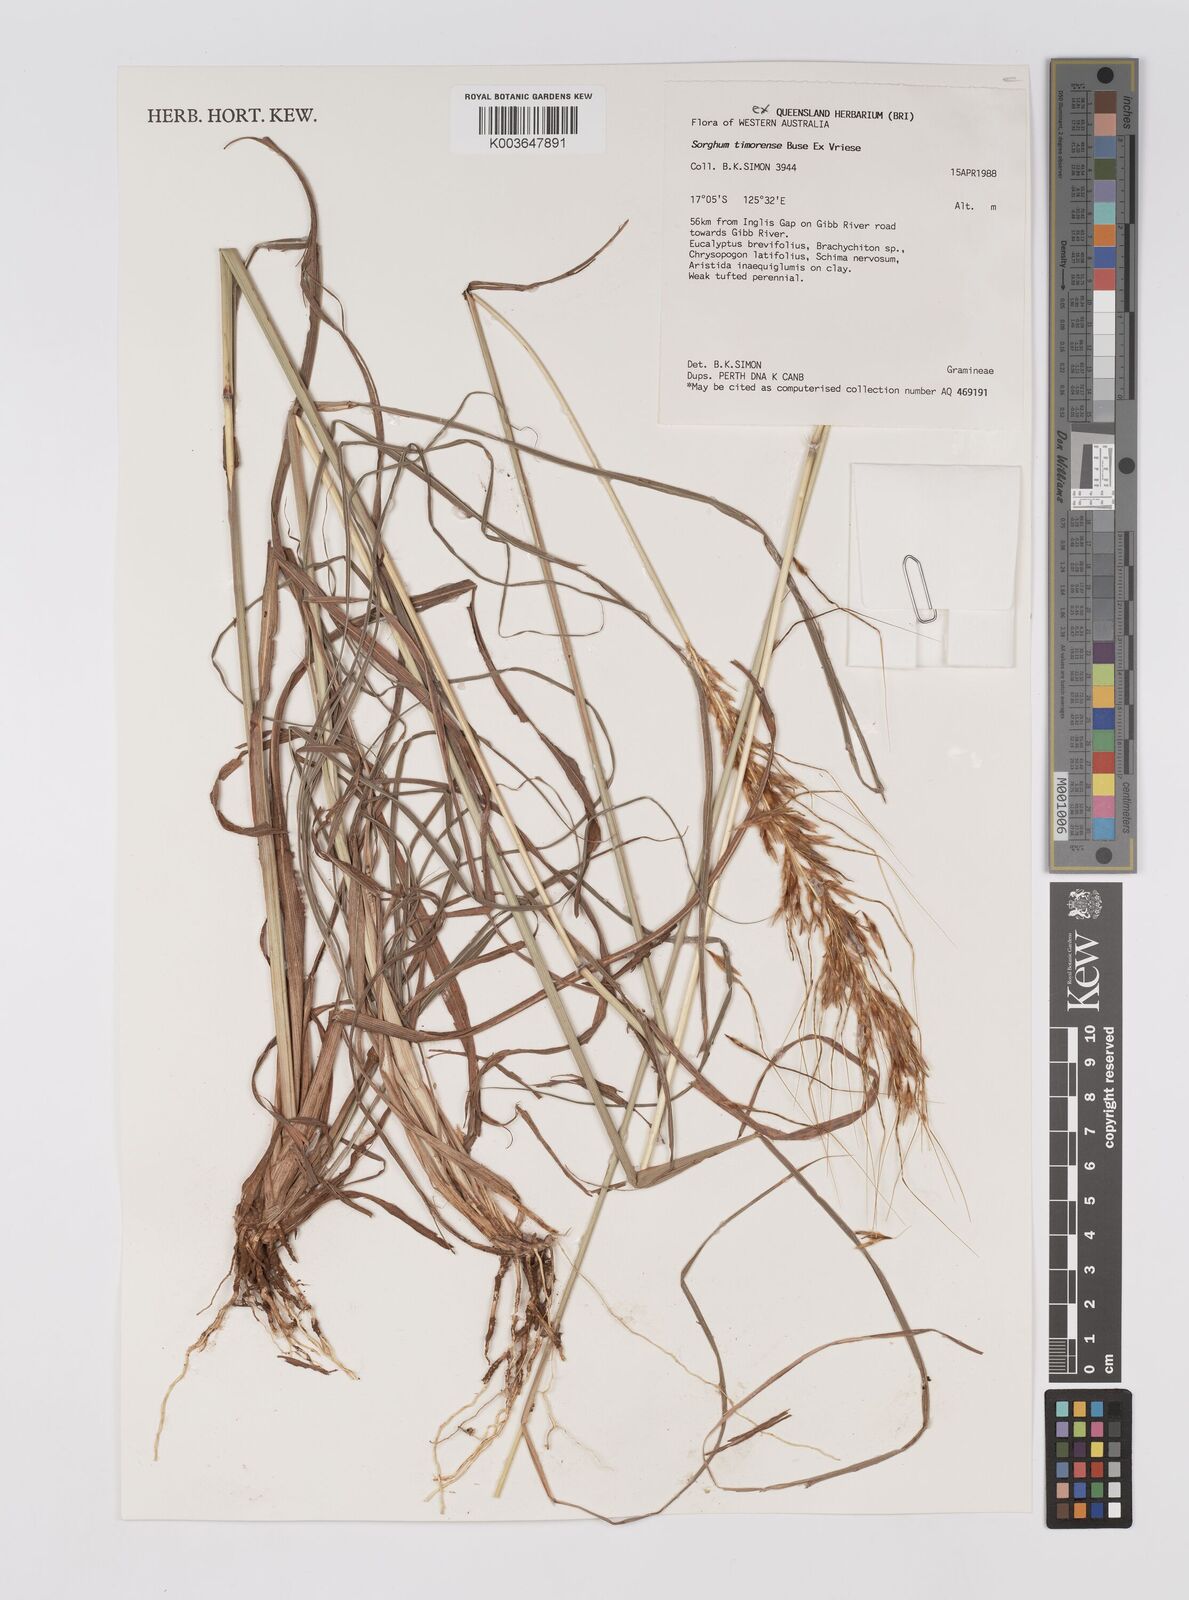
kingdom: Plantae
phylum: Tracheophyta
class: Liliopsida
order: Poales
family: Poaceae
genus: Sarga
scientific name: Sarga timorensis
